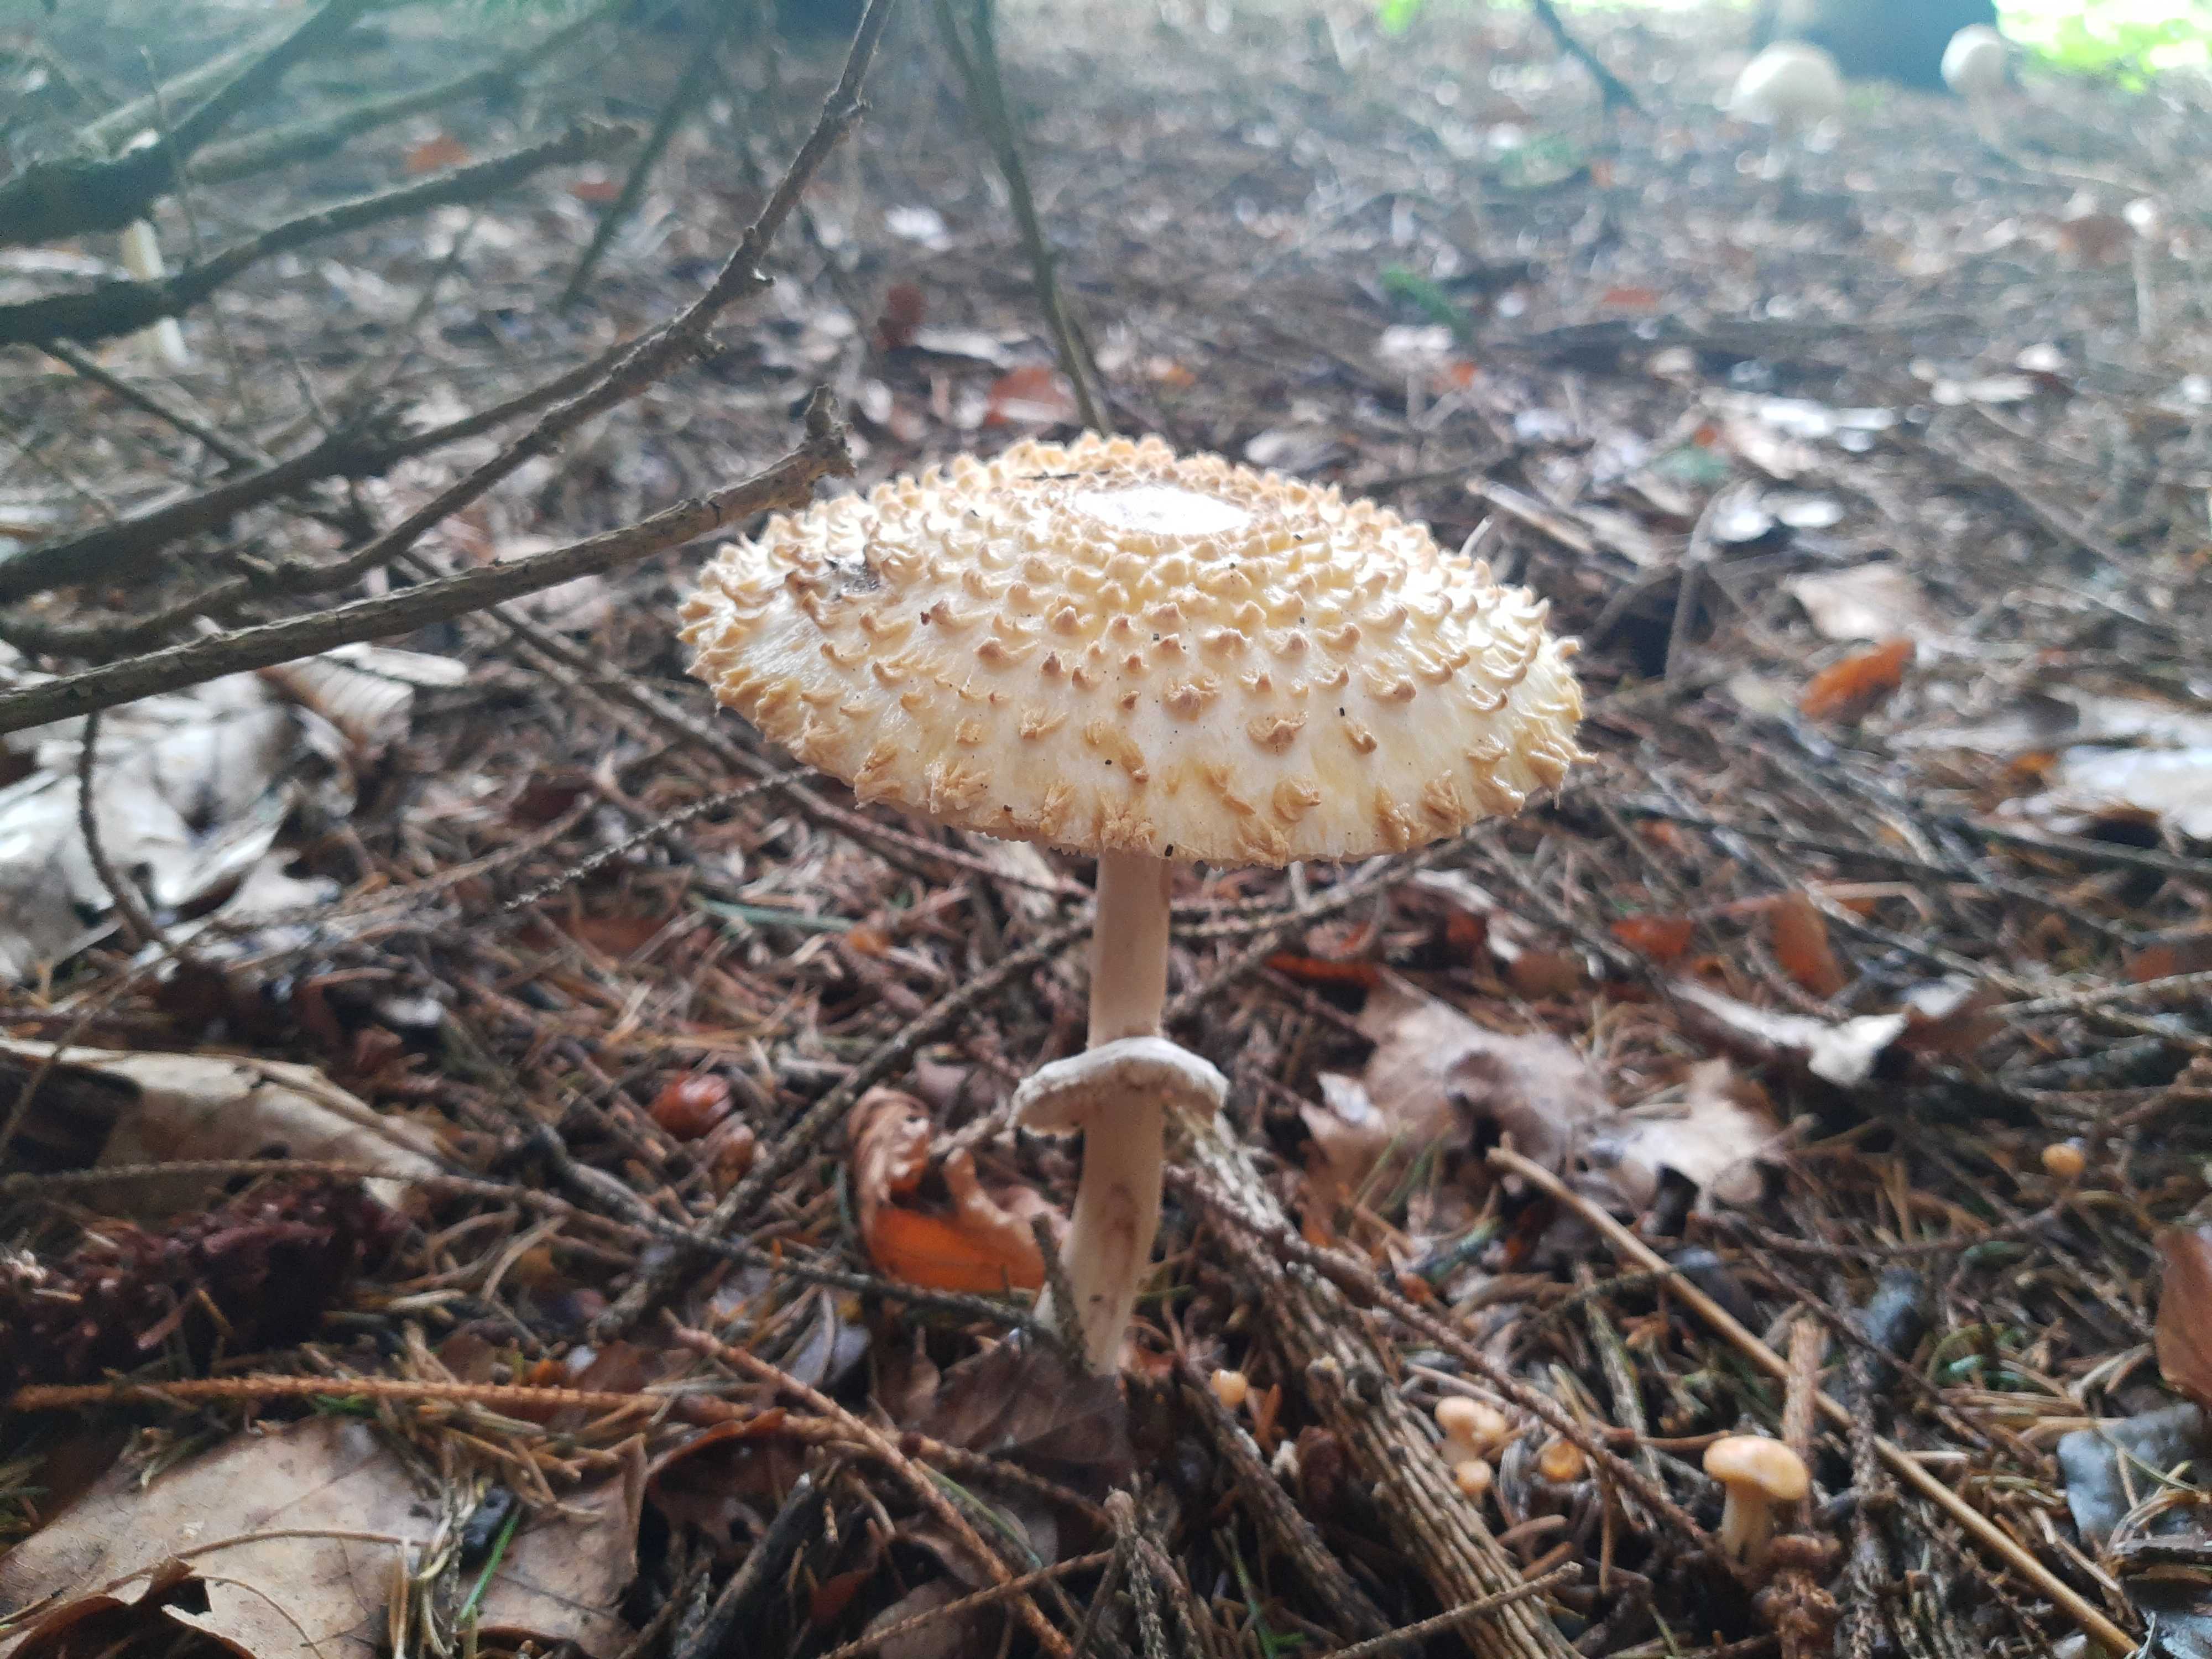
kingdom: Fungi
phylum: Basidiomycota
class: Agaricomycetes
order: Agaricales
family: Agaricaceae
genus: Leucoagaricus
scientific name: Leucoagaricus nympharum
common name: gran-silkehat
